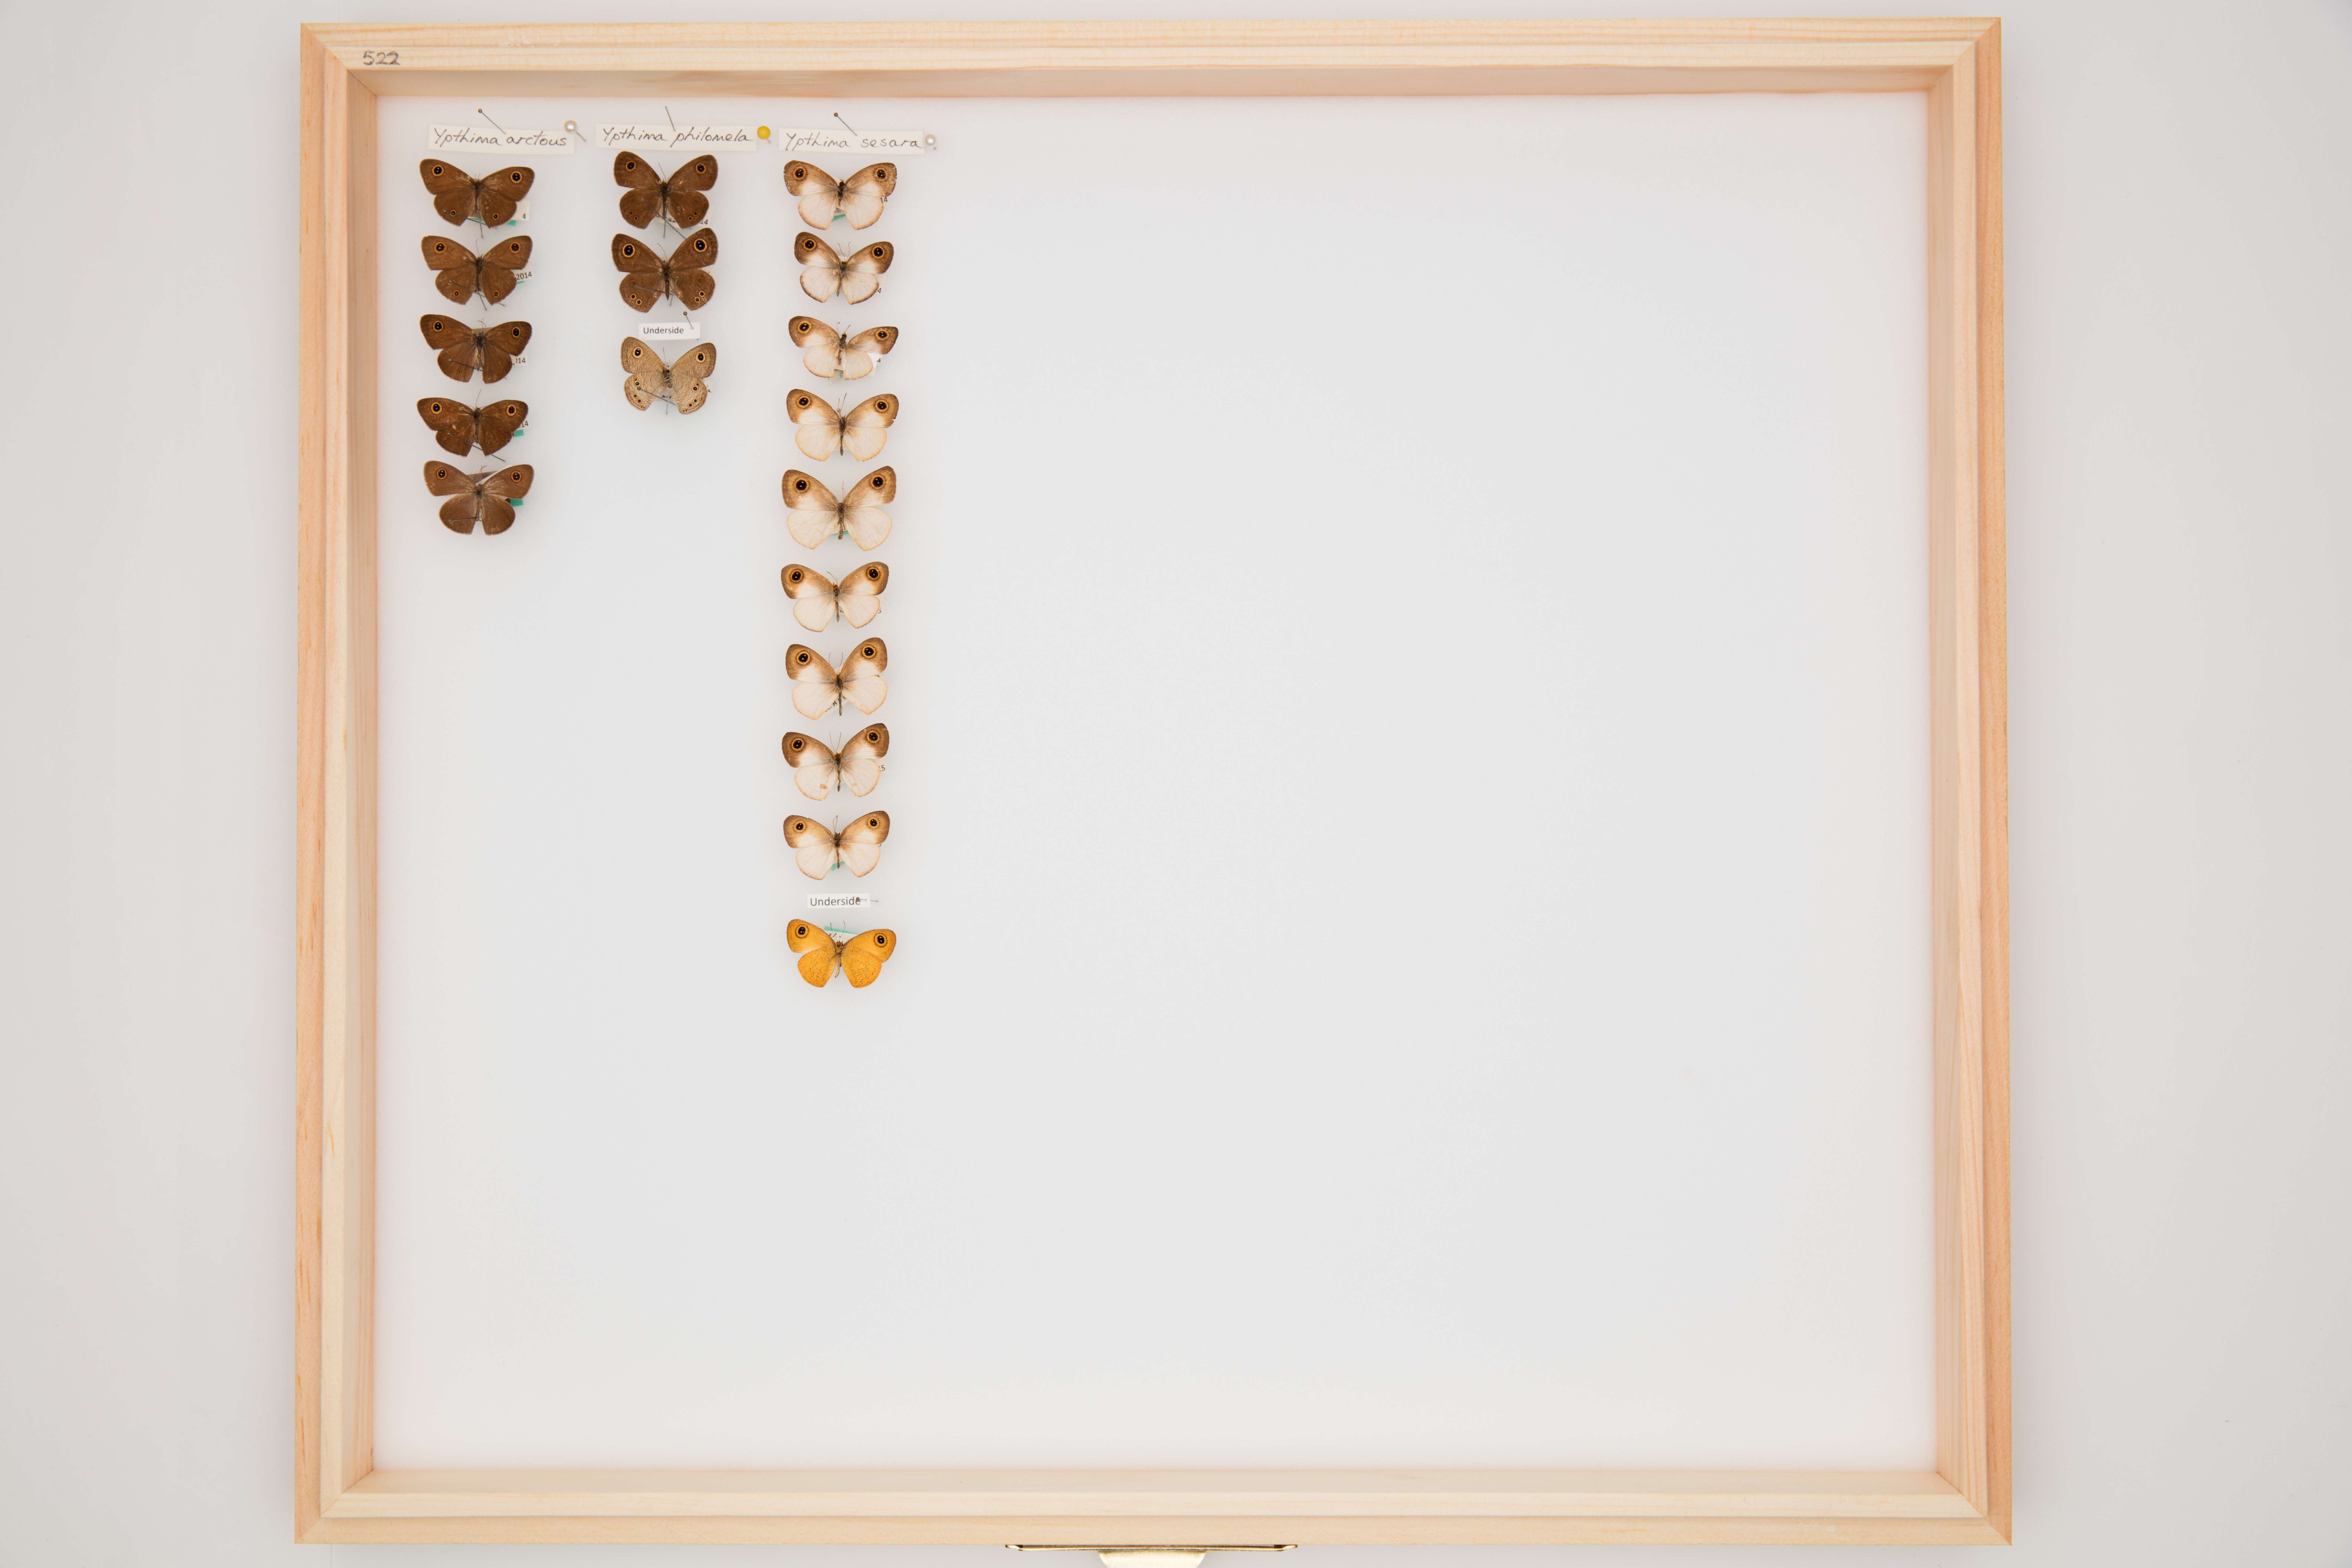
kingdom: Animalia
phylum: Arthropoda
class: Insecta
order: Lepidoptera
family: Nymphalidae
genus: Ypthima
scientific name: Ypthima philomela
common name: Baby fivering
